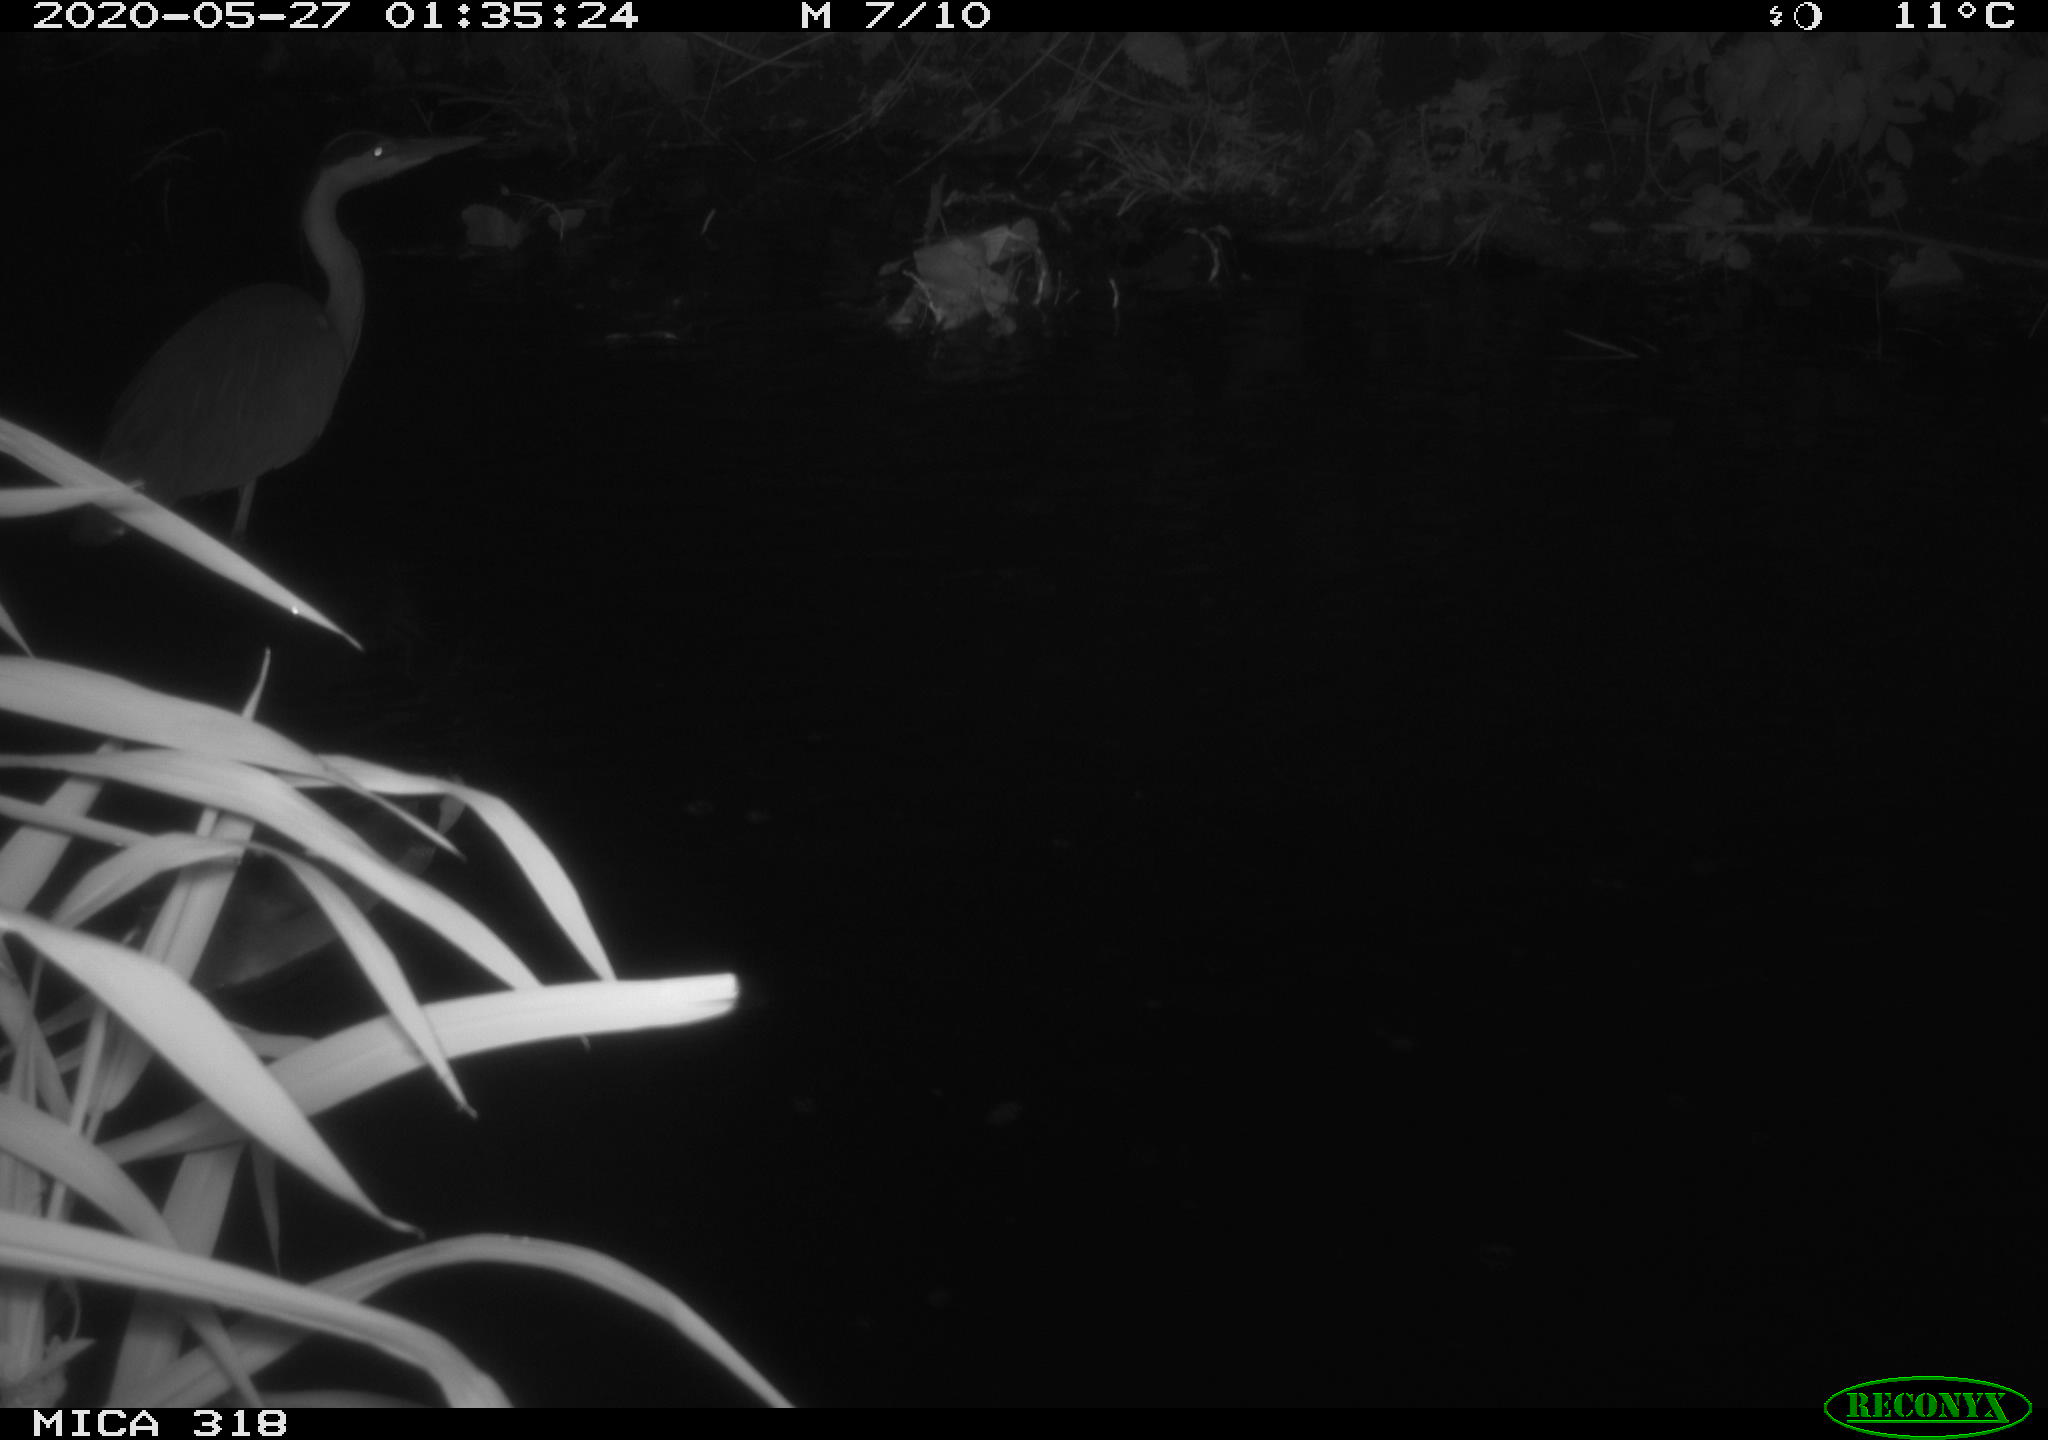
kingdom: Animalia
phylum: Chordata
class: Aves
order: Anseriformes
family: Anatidae
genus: Anas
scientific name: Anas platyrhynchos
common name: Mallard
